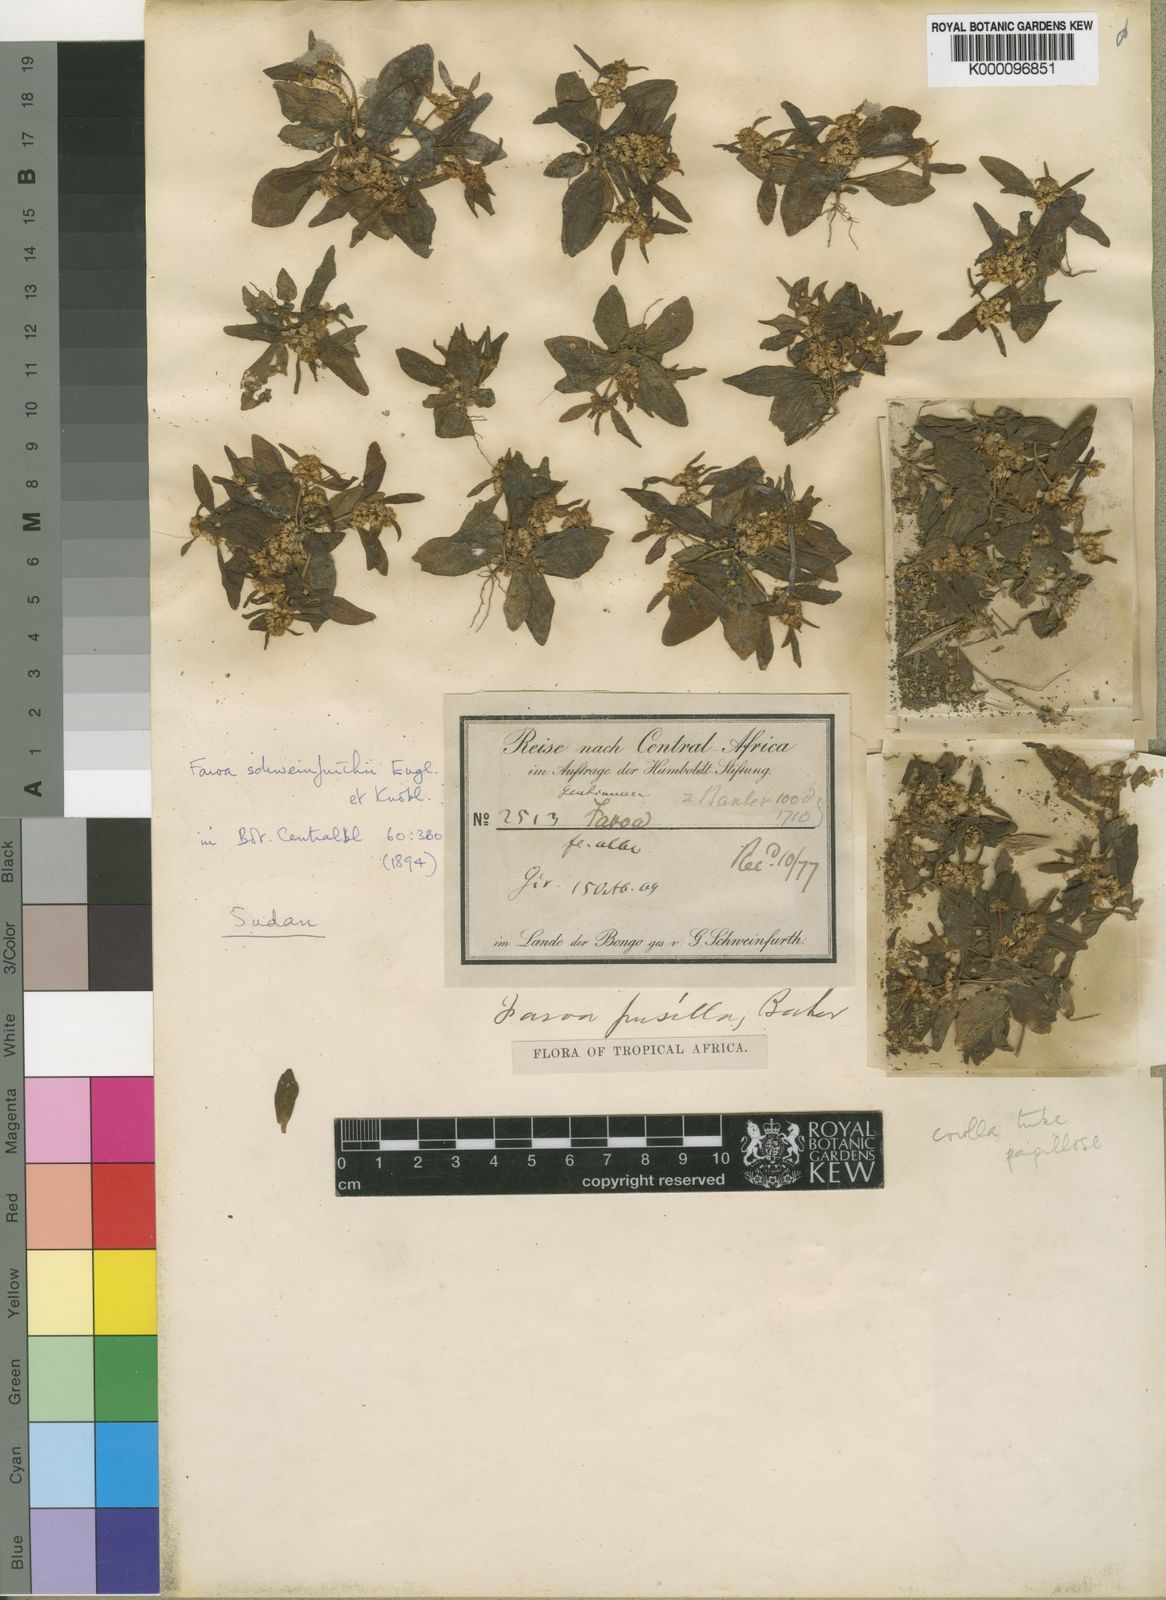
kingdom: Plantae
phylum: Tracheophyta
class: Magnoliopsida
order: Gentianales
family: Gentianaceae
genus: Faroa
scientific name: Faroa pusilla
